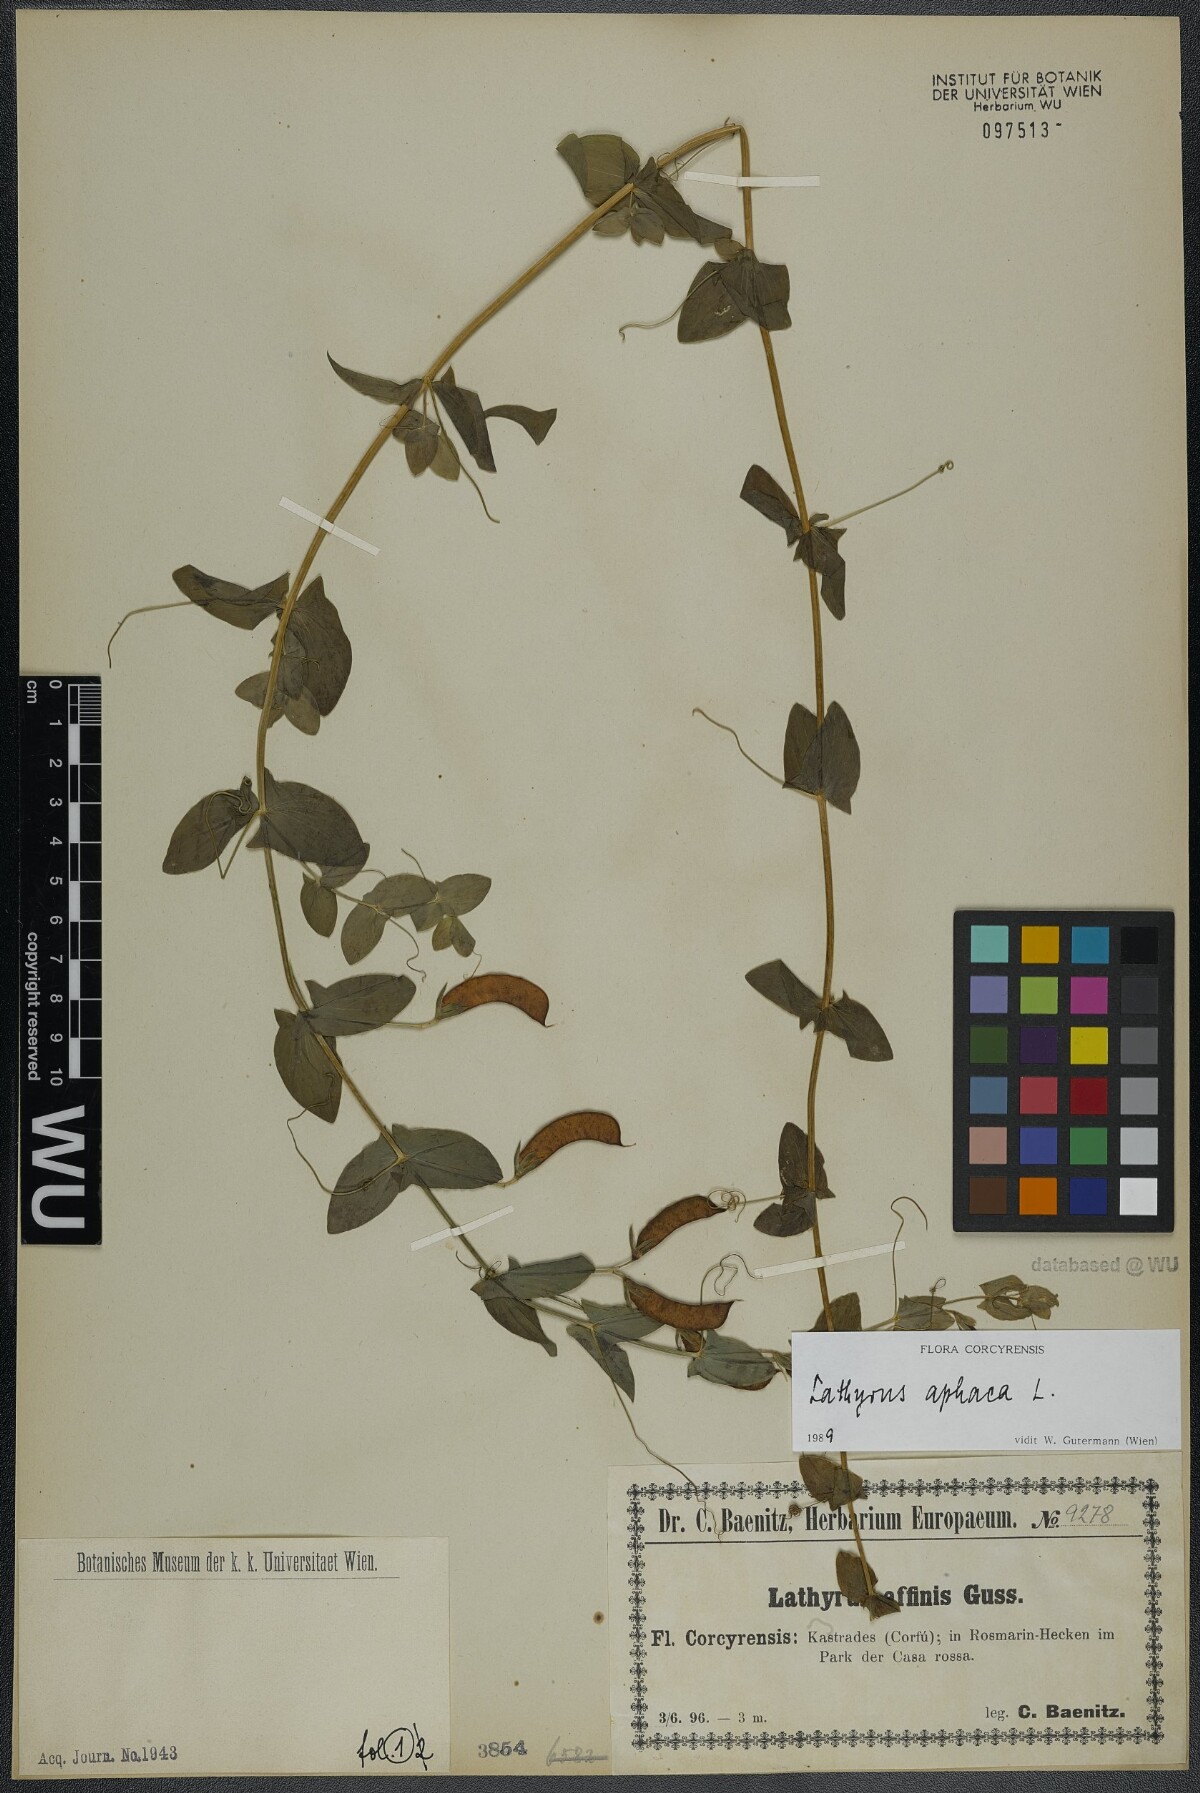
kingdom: Plantae
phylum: Tracheophyta
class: Magnoliopsida
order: Fabales
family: Fabaceae
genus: Lathyrus
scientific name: Lathyrus aphaca
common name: Yellow vetchling
